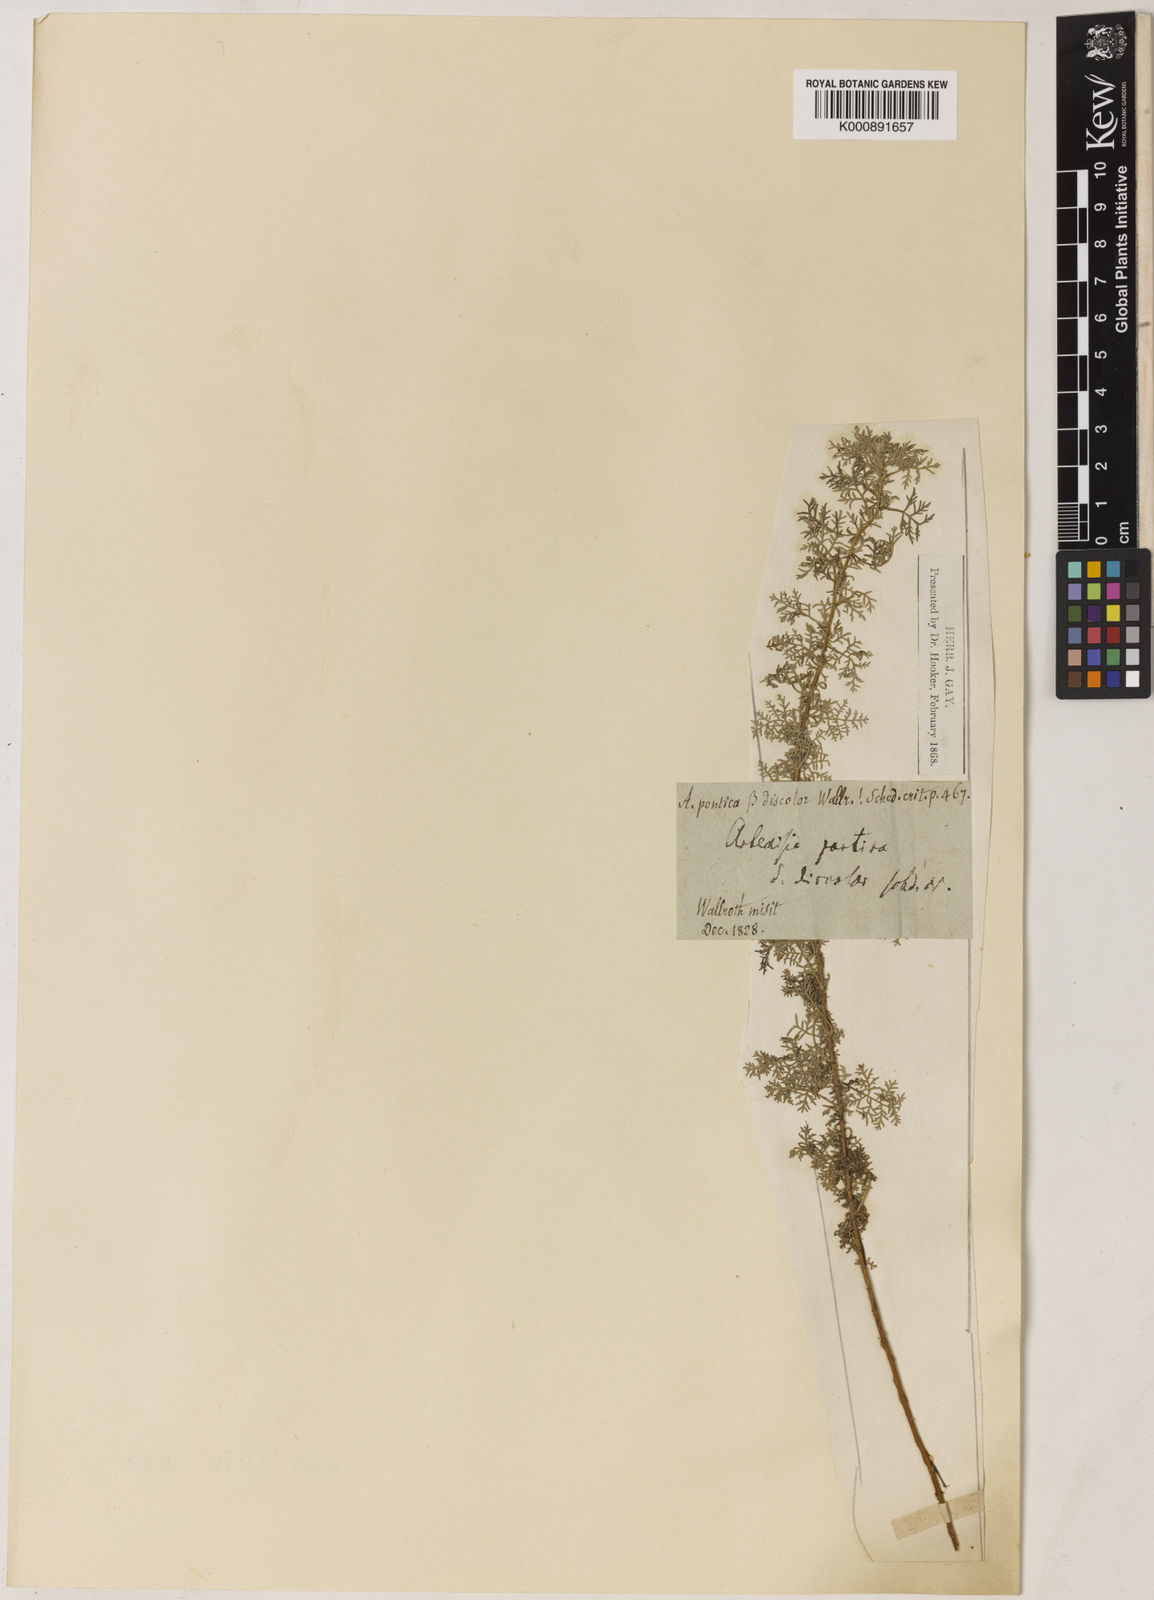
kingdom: Plantae
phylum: Tracheophyta
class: Magnoliopsida
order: Asterales
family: Asteraceae
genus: Artemisia
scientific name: Artemisia pontica
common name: Roman wormwood
